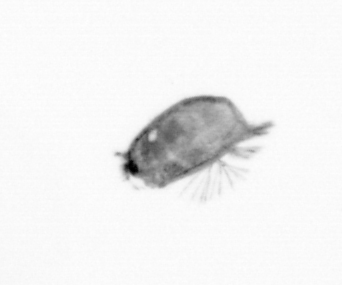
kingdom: Animalia
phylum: Arthropoda
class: Maxillopoda
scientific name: Maxillopoda
